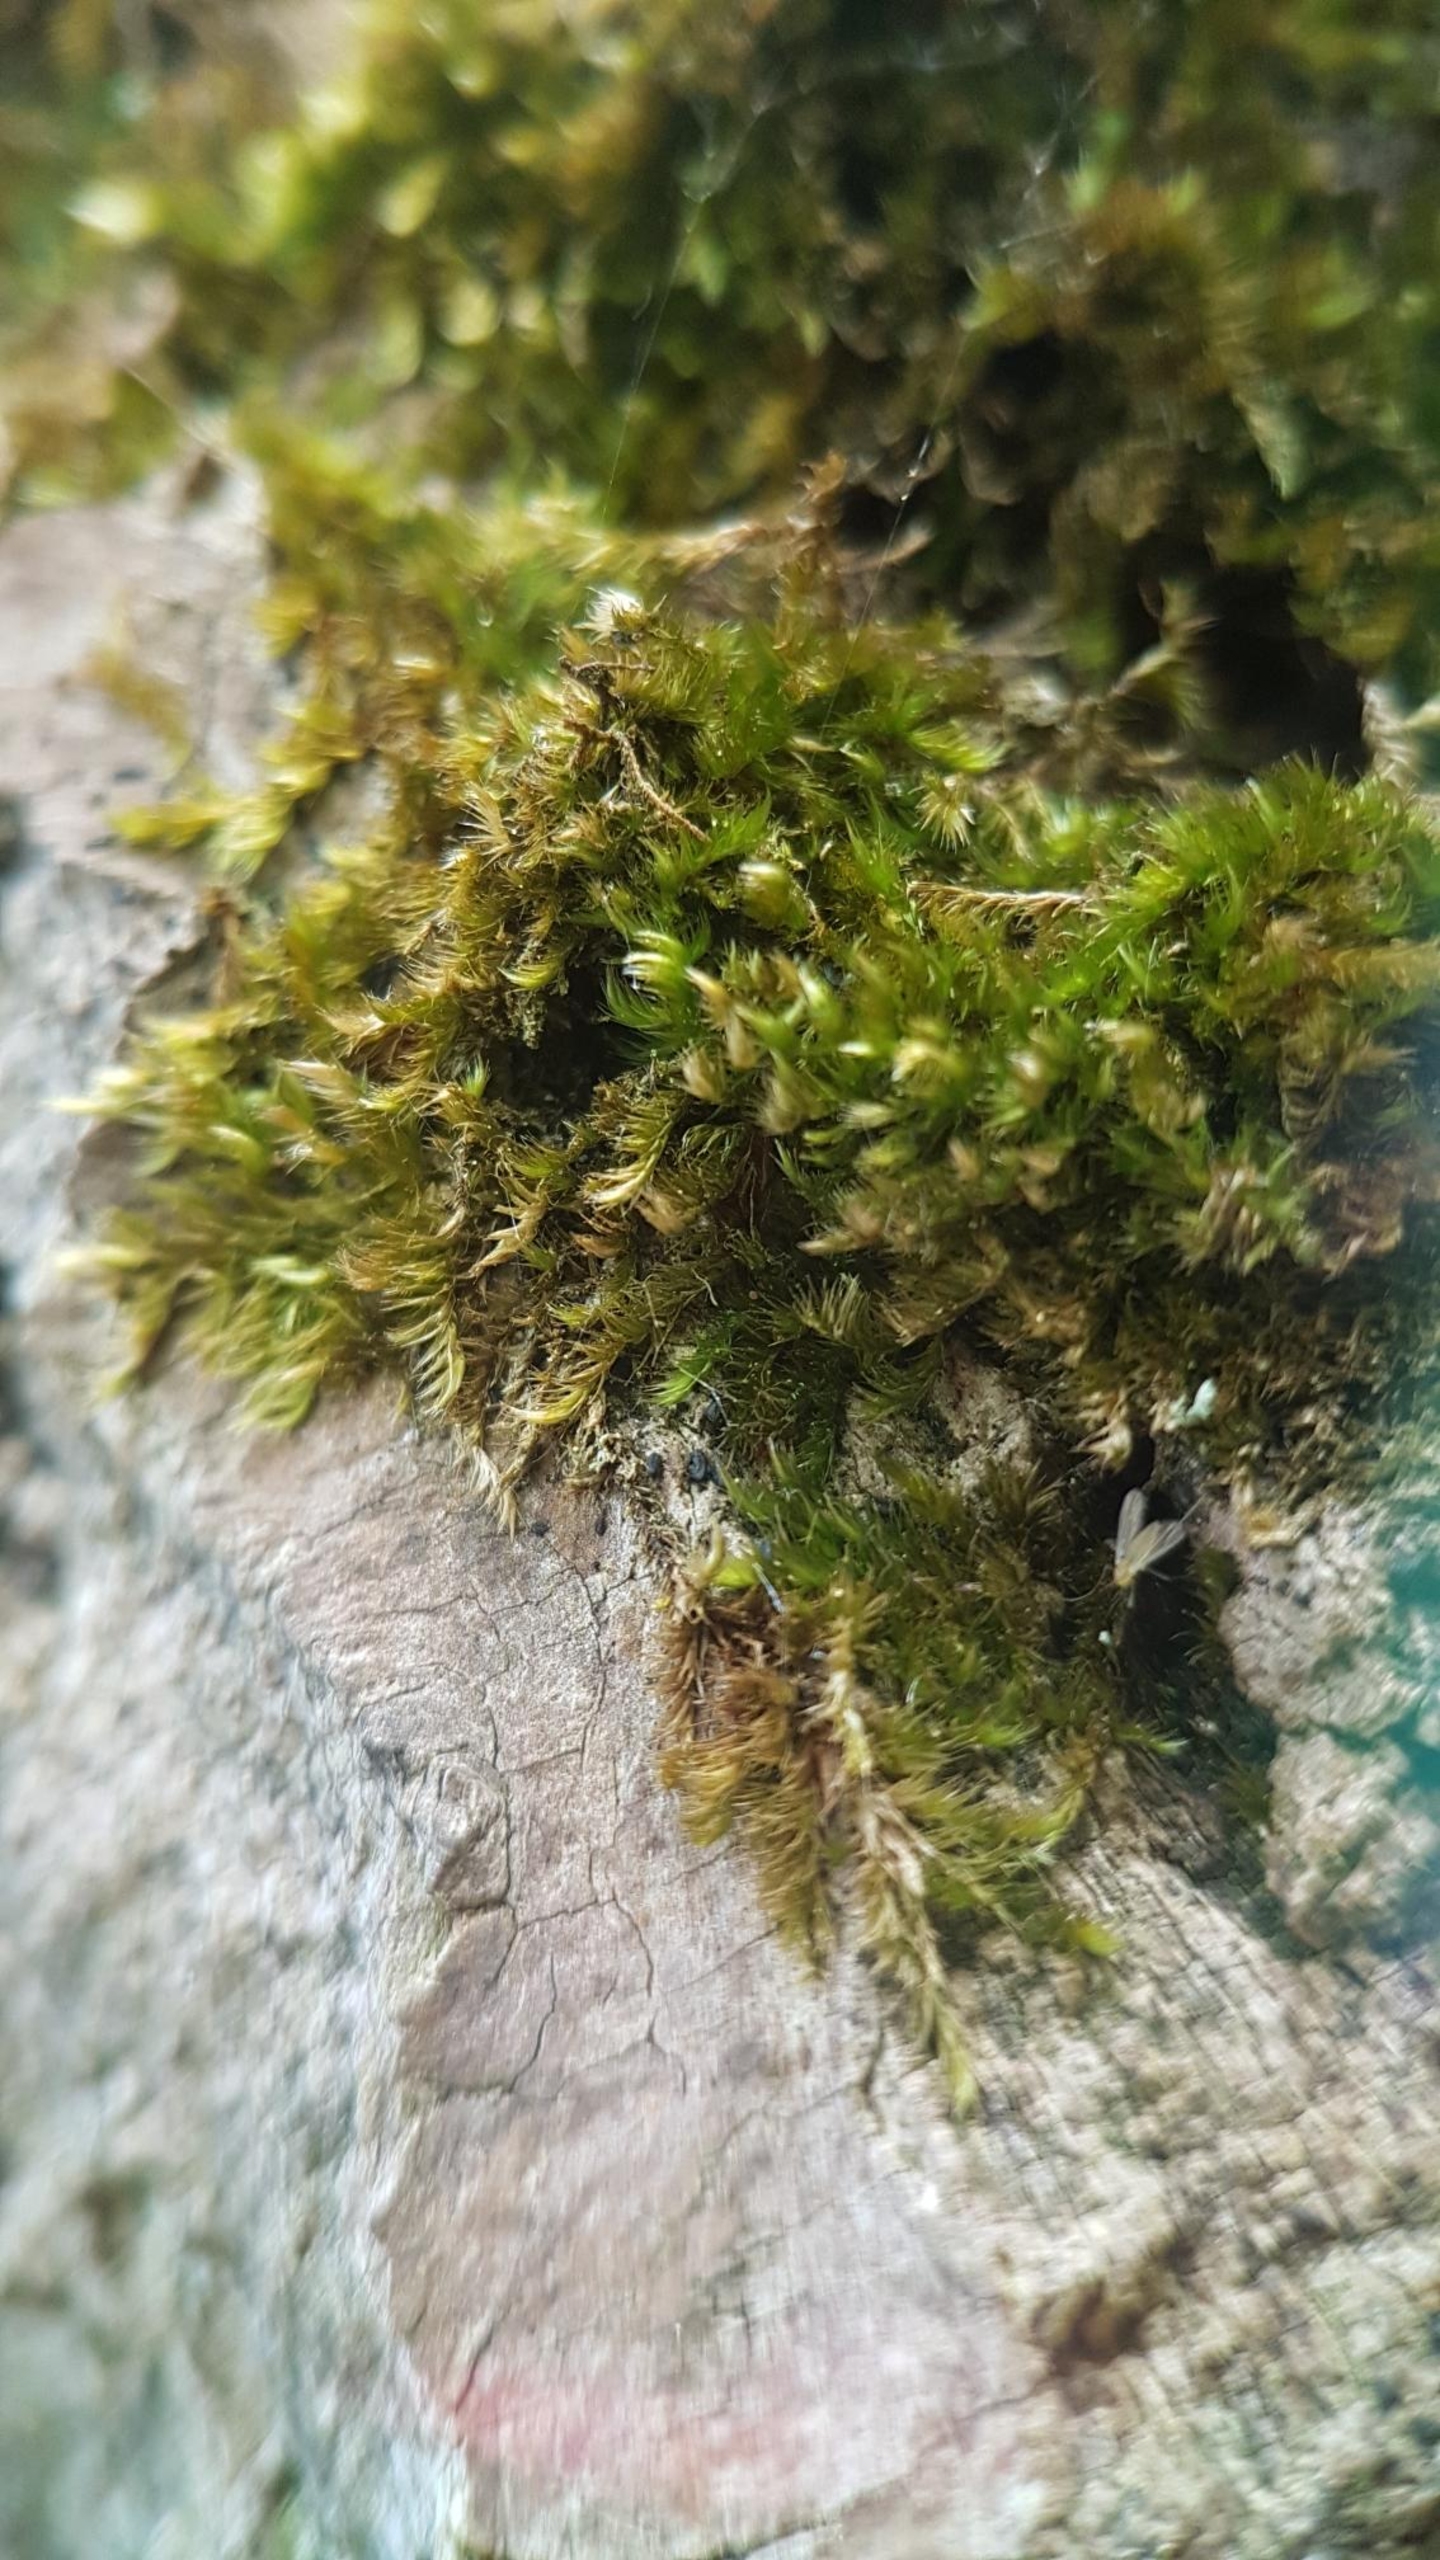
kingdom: Plantae
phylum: Bryophyta
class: Bryopsida
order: Hypnales
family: Hypnaceae
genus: Hypnum
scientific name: Hypnum resupinatum
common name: Ret cypresmos
